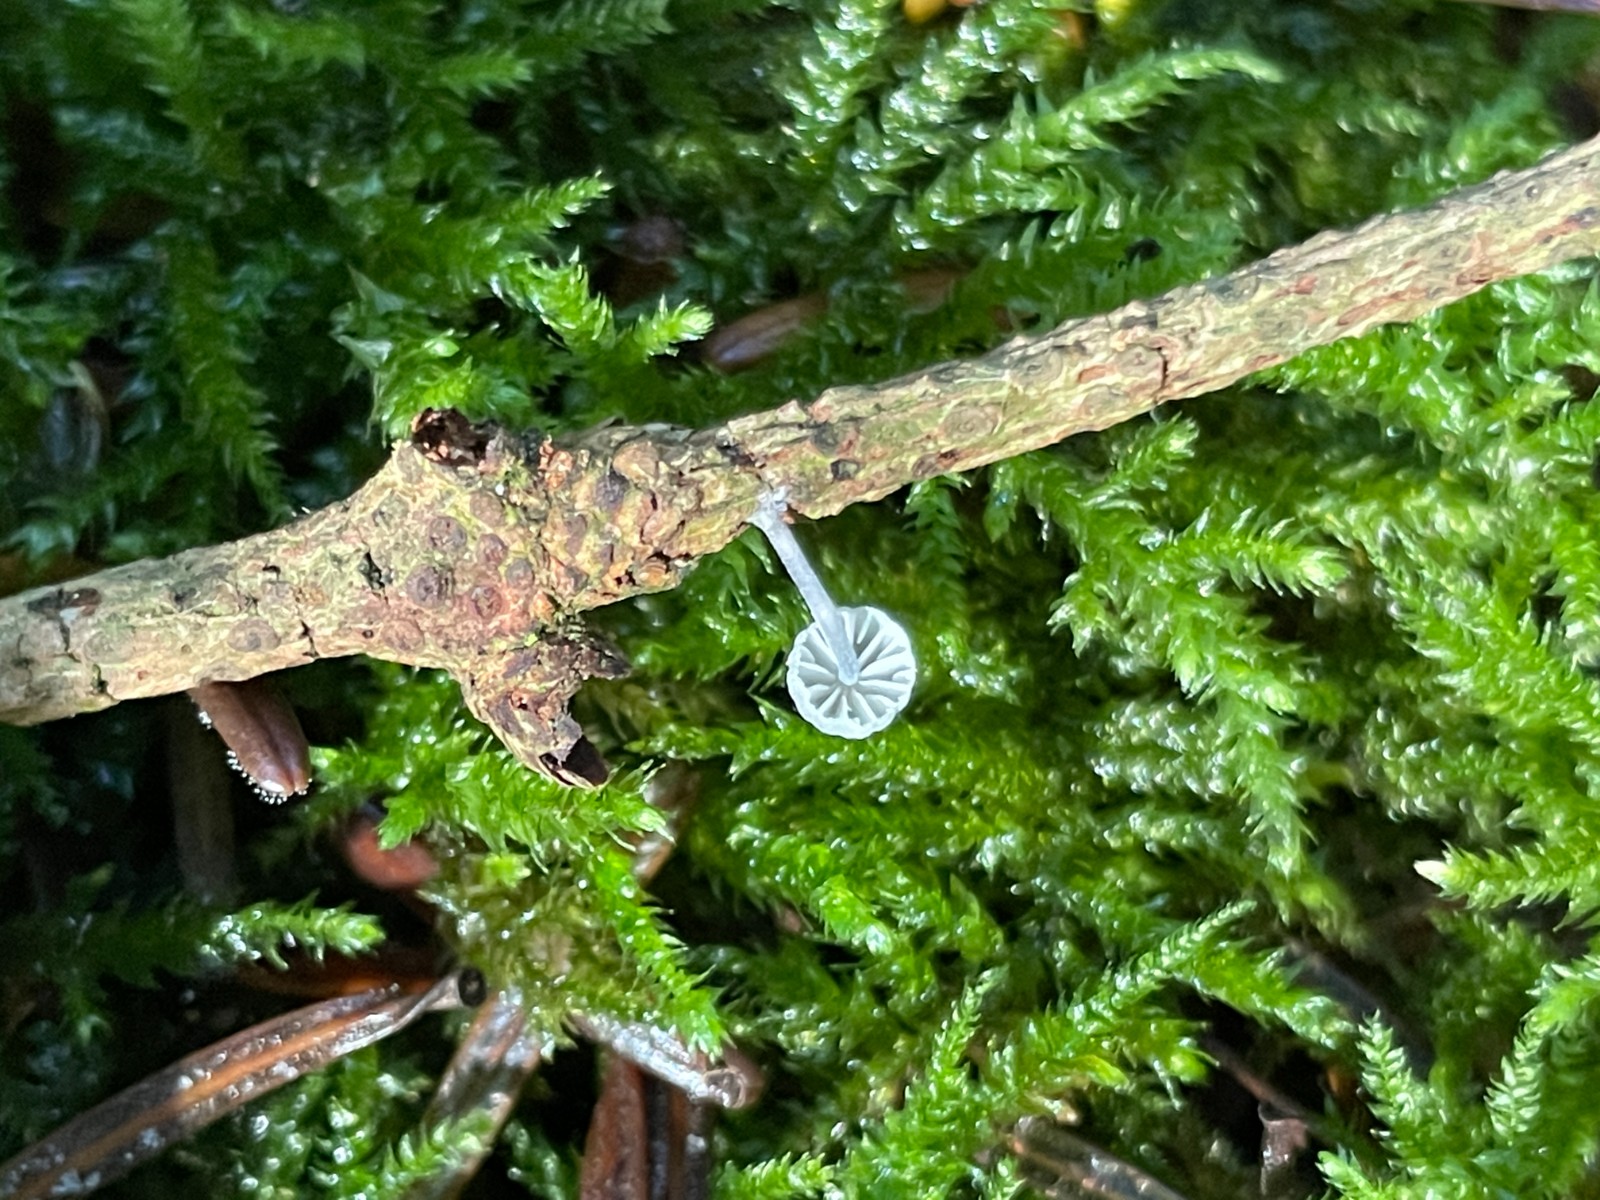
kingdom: Fungi
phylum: Basidiomycota
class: Agaricomycetes
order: Agaricales
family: Mycenaceae
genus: Mycena
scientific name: Mycena pseudocorticola
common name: gråblå bark-huesvamp
